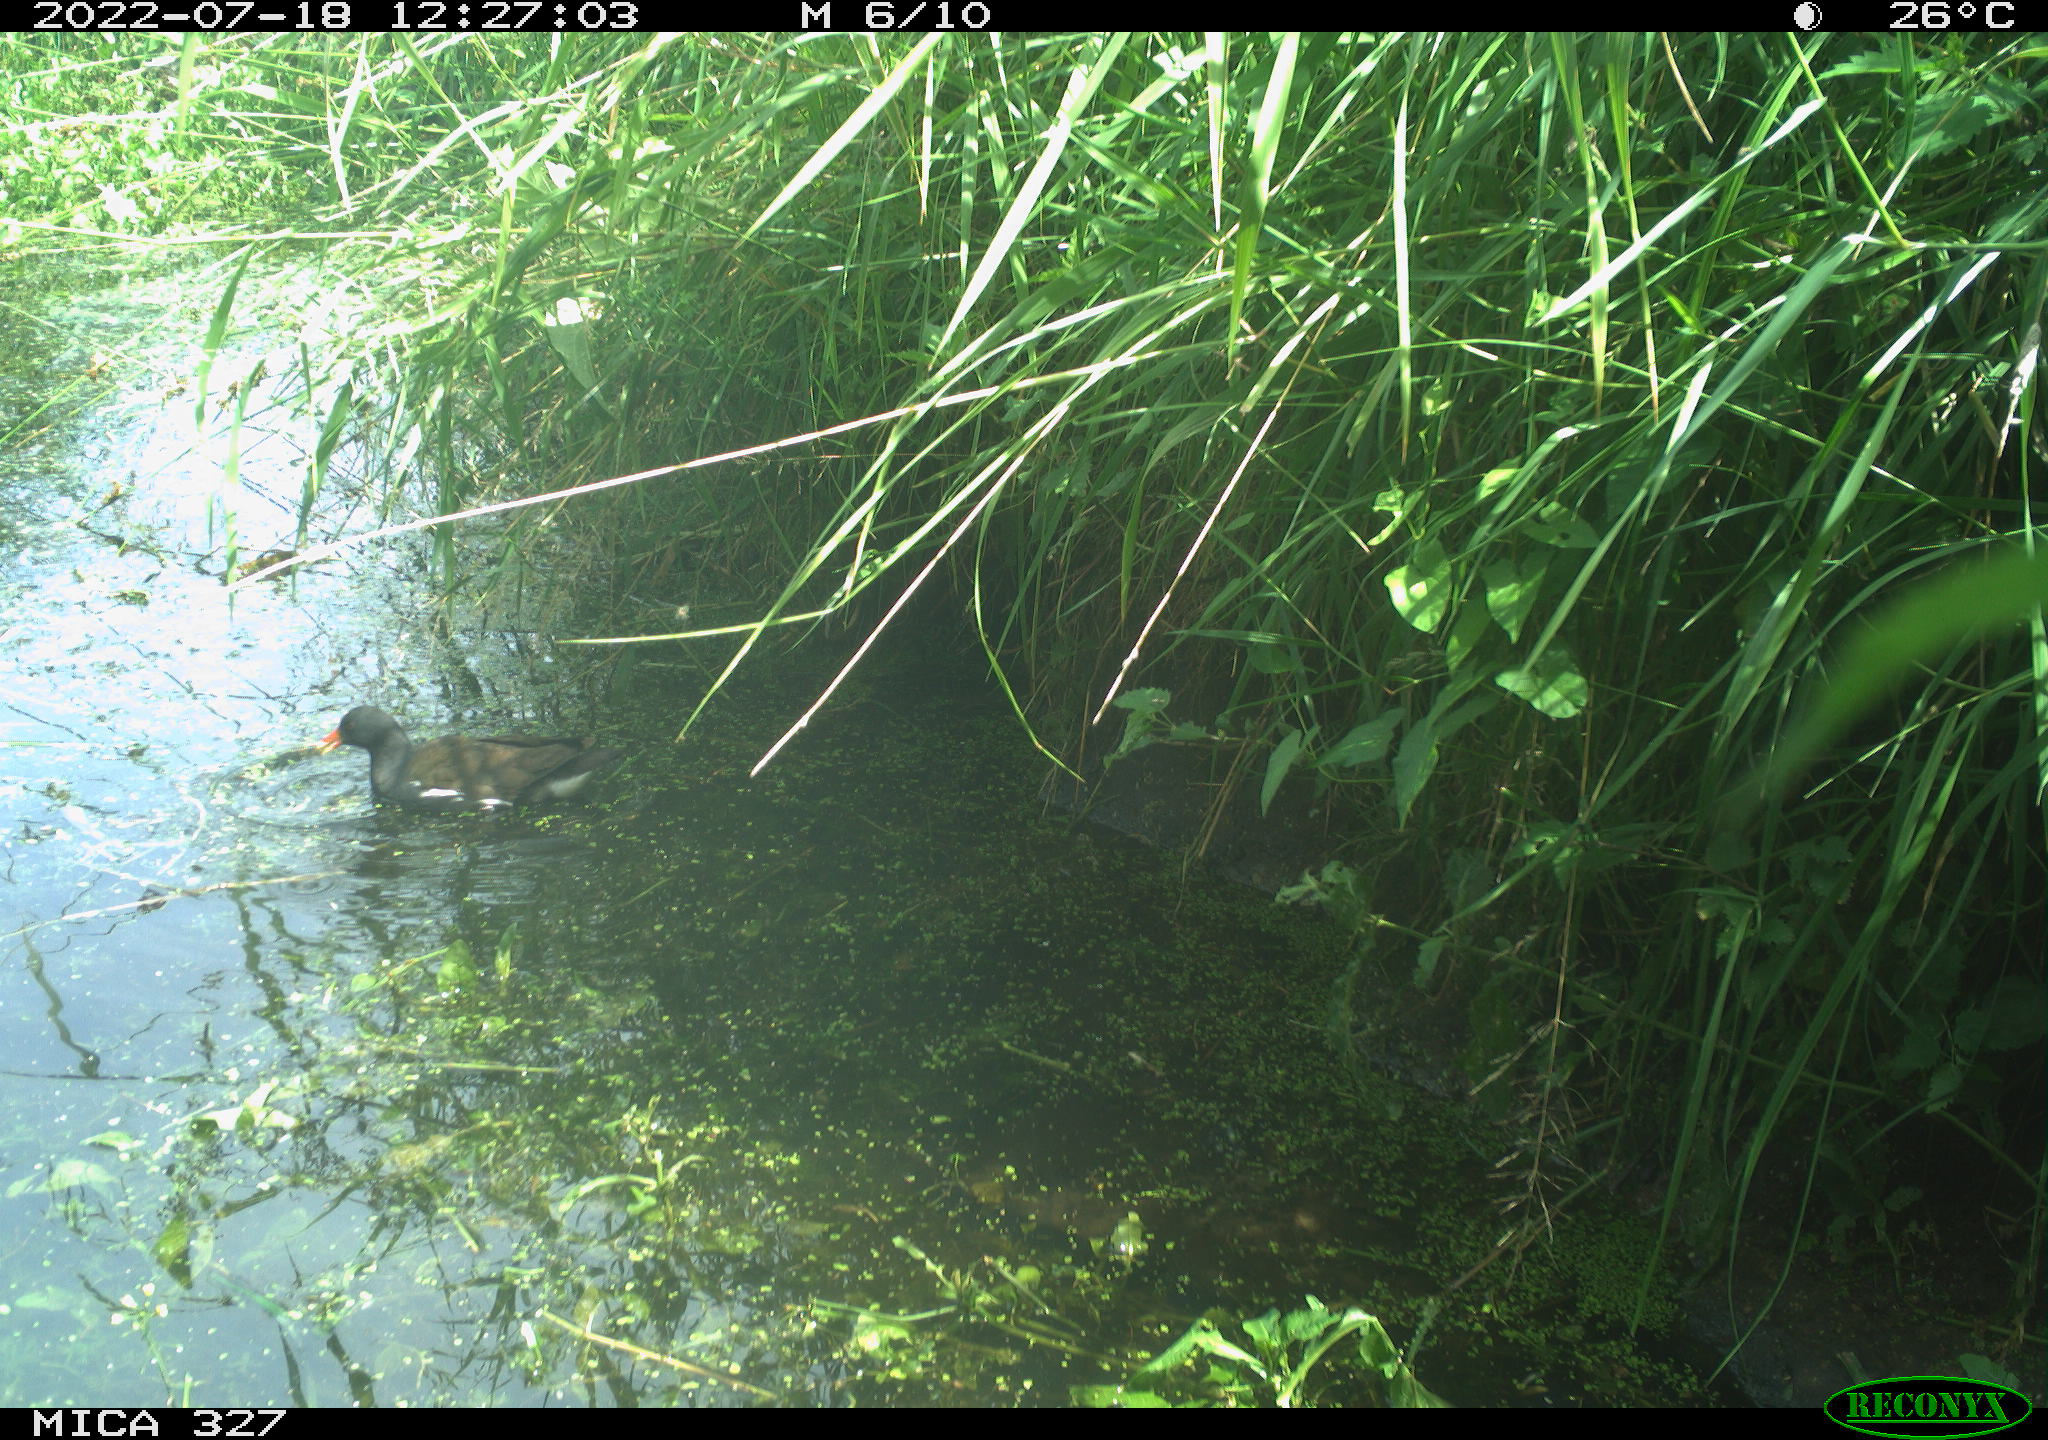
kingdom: Animalia
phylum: Chordata
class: Aves
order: Gruiformes
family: Rallidae
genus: Gallinula
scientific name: Gallinula chloropus
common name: Common moorhen
